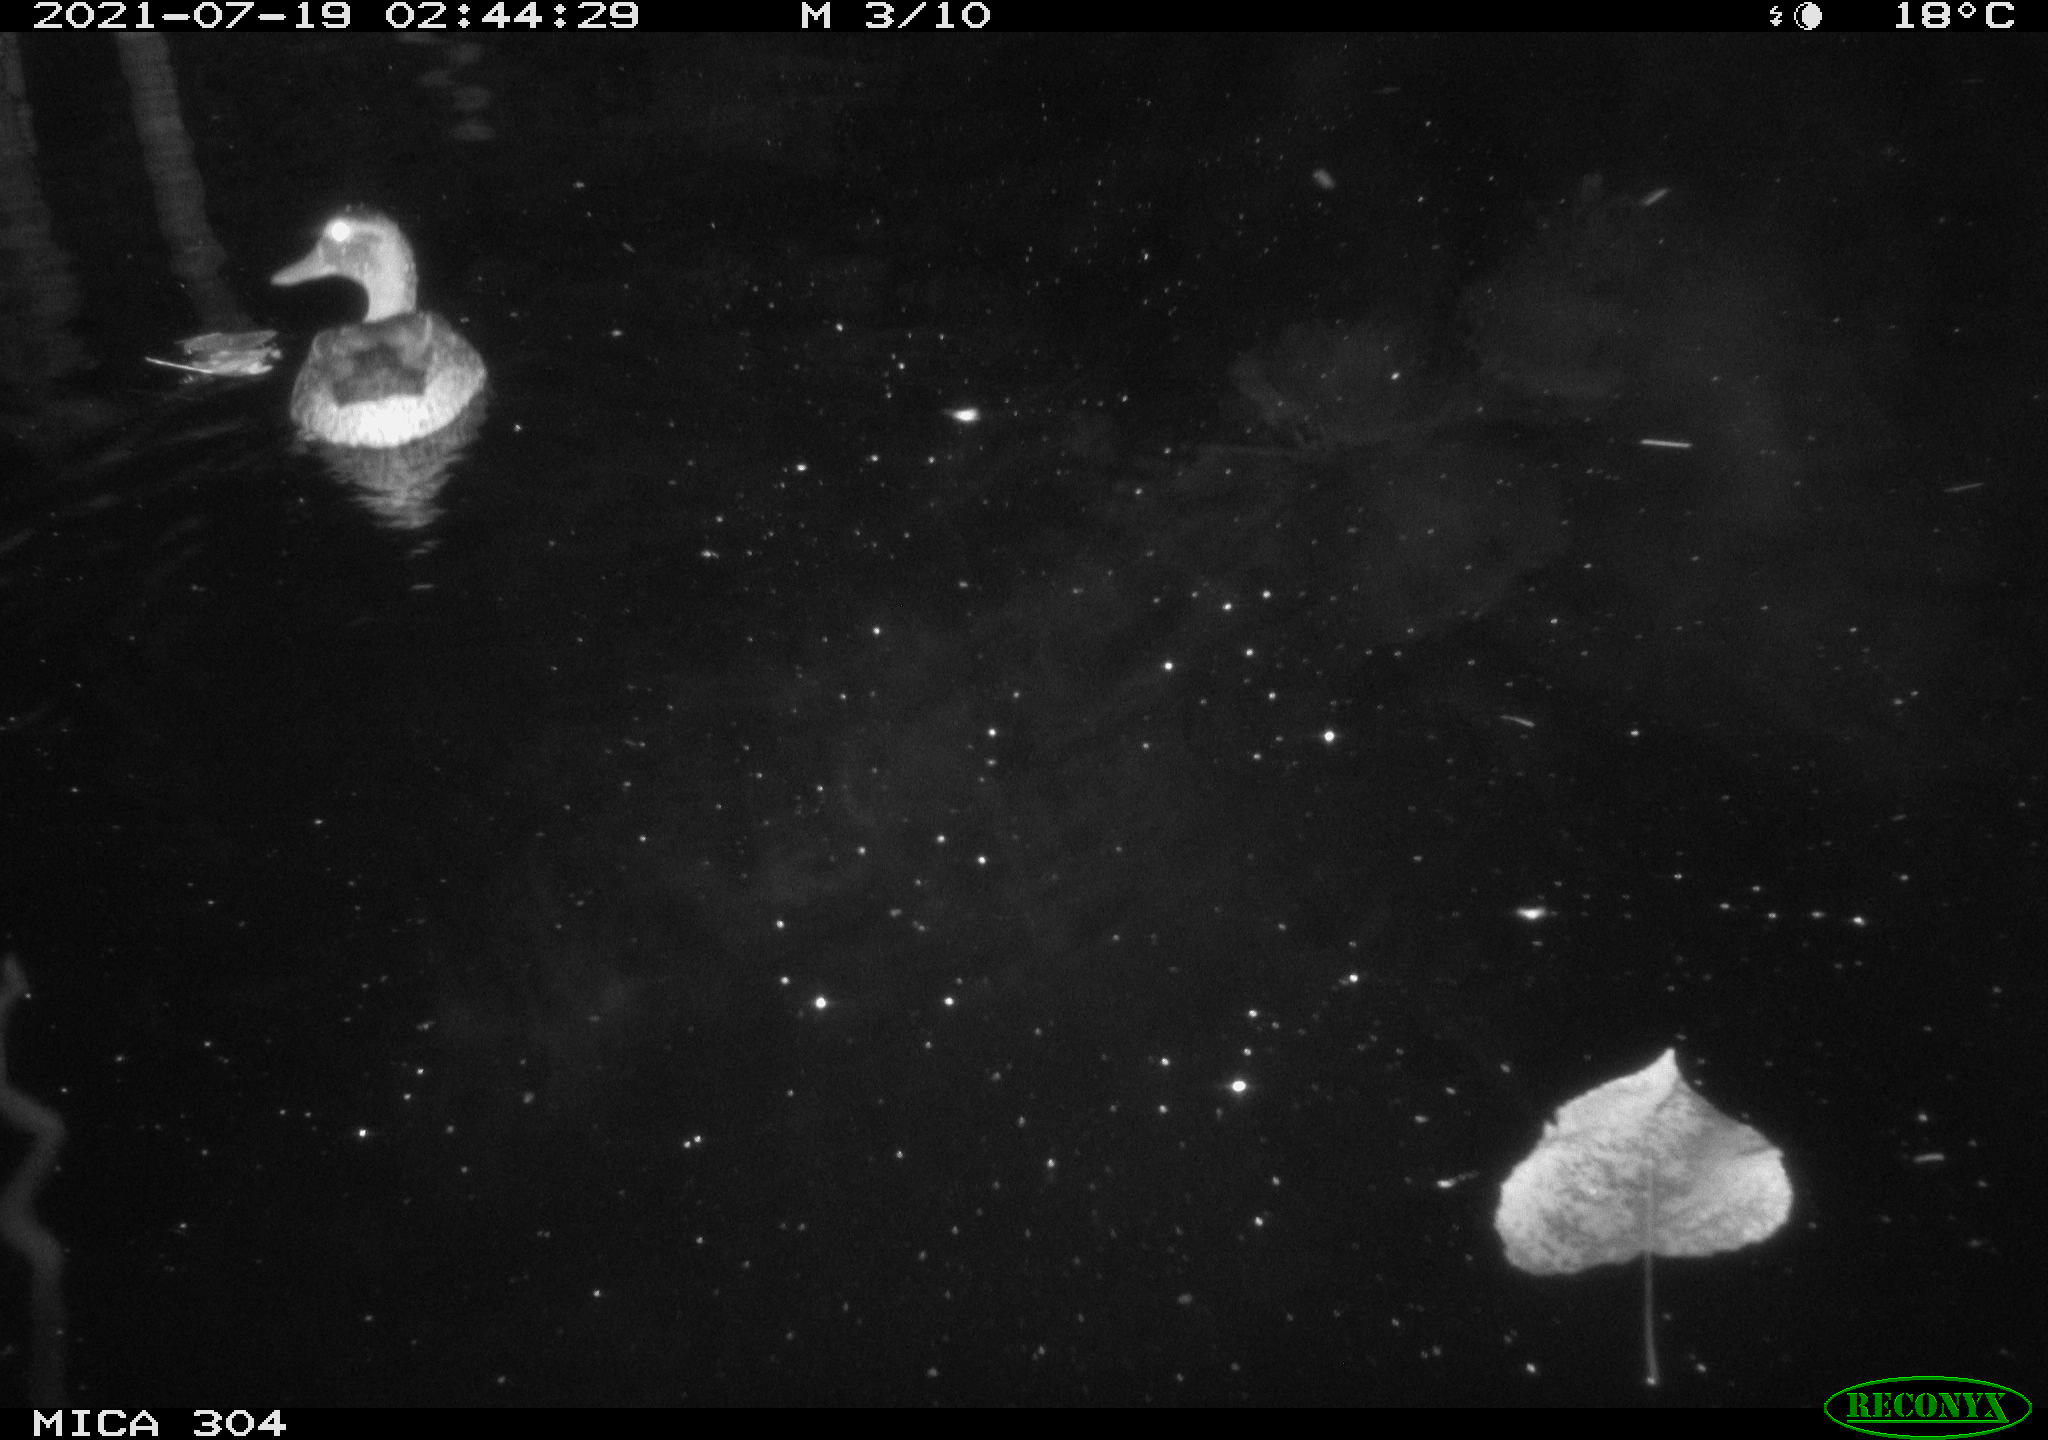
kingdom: Animalia
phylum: Chordata
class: Aves
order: Anseriformes
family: Anatidae
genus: Mareca
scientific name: Mareca strepera
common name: Gadwall
